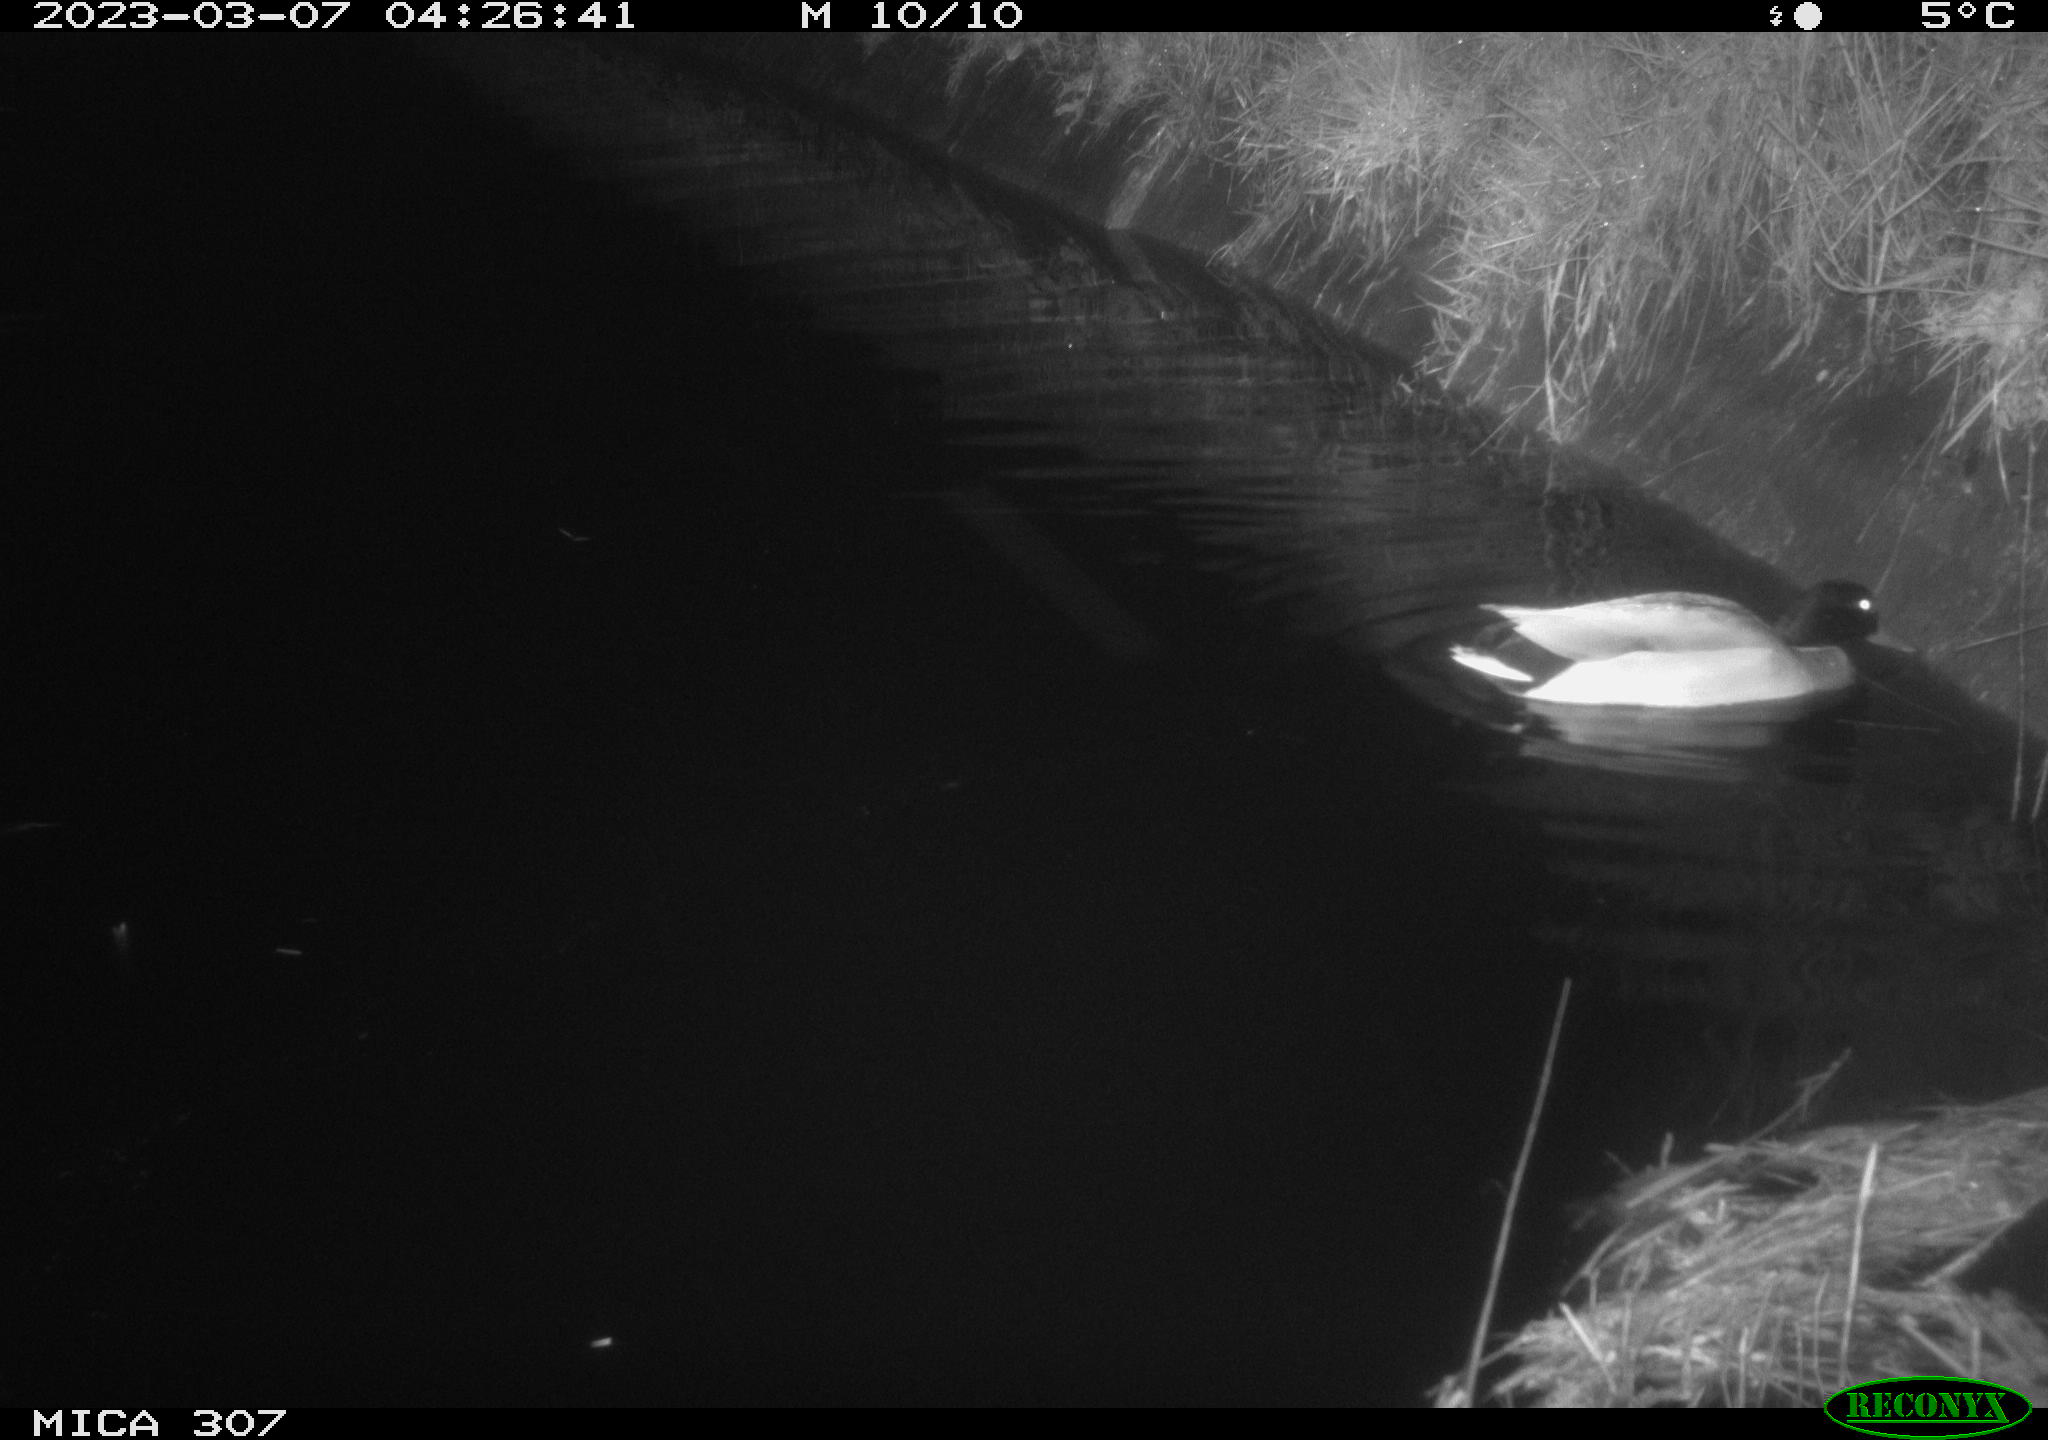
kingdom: Animalia
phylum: Chordata
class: Aves
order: Anseriformes
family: Anatidae
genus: Anas
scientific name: Anas
